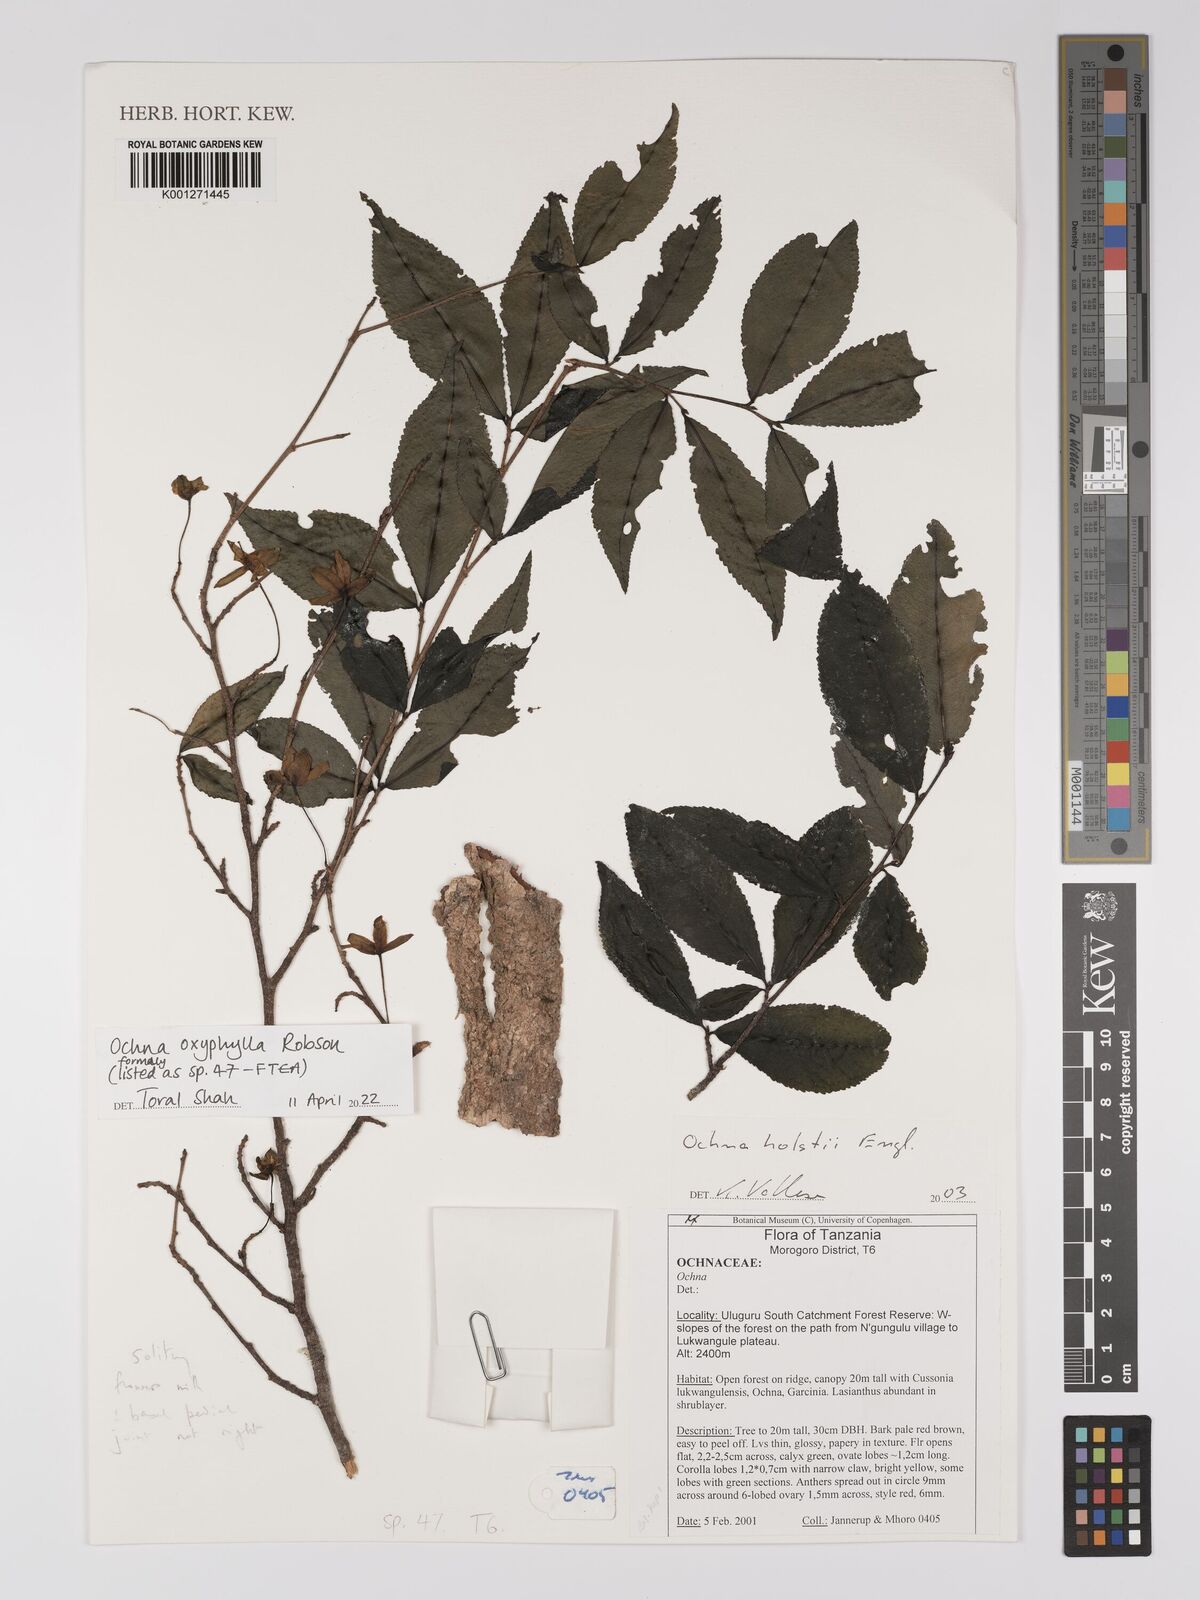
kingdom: Plantae
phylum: Tracheophyta
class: Magnoliopsida
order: Malpighiales
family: Ochnaceae
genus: Ochna
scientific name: Ochna oxyphylla
